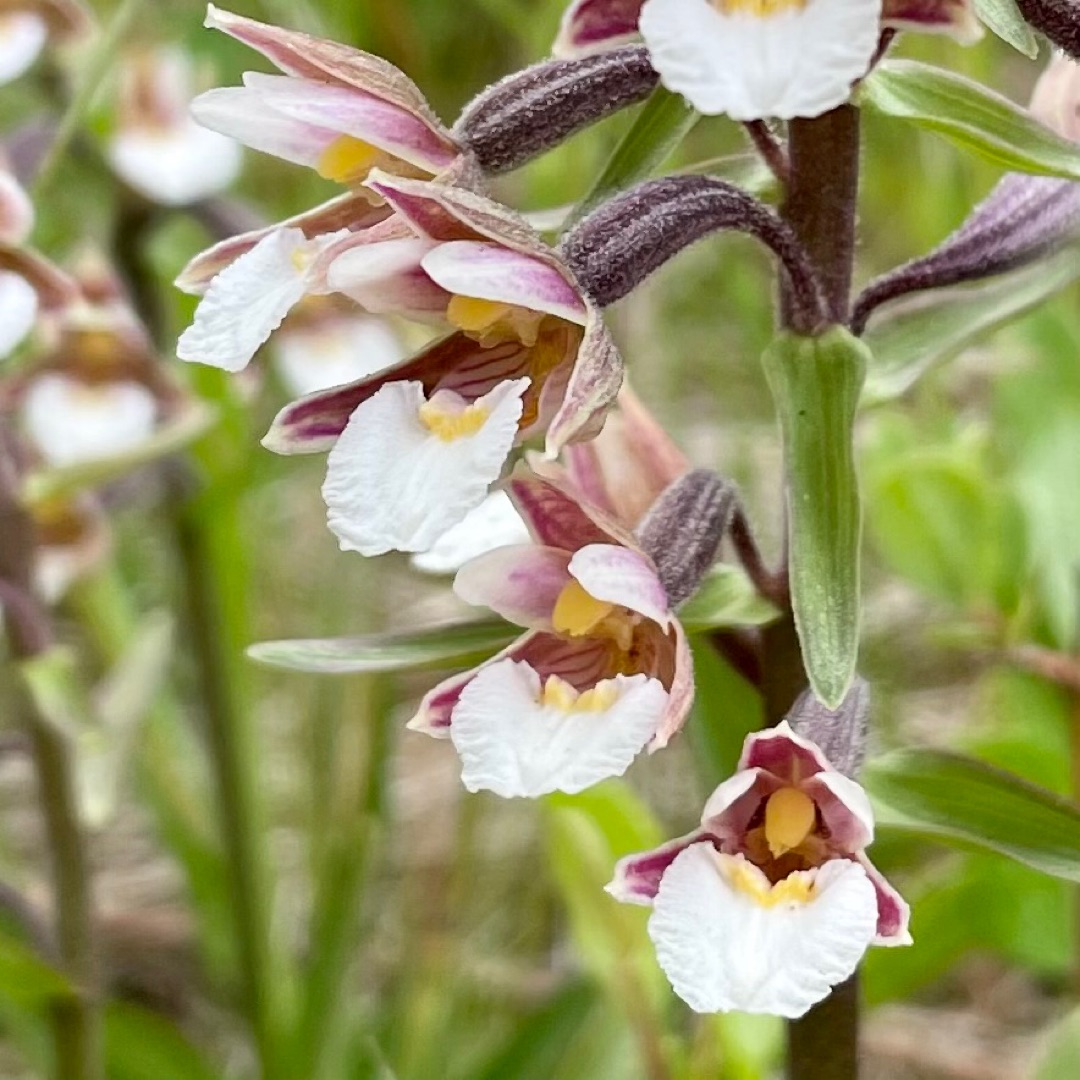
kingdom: Plantae
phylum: Tracheophyta
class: Liliopsida
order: Asparagales
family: Orchidaceae
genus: Epipactis
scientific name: Epipactis palustris
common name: Sump-hullæbe
